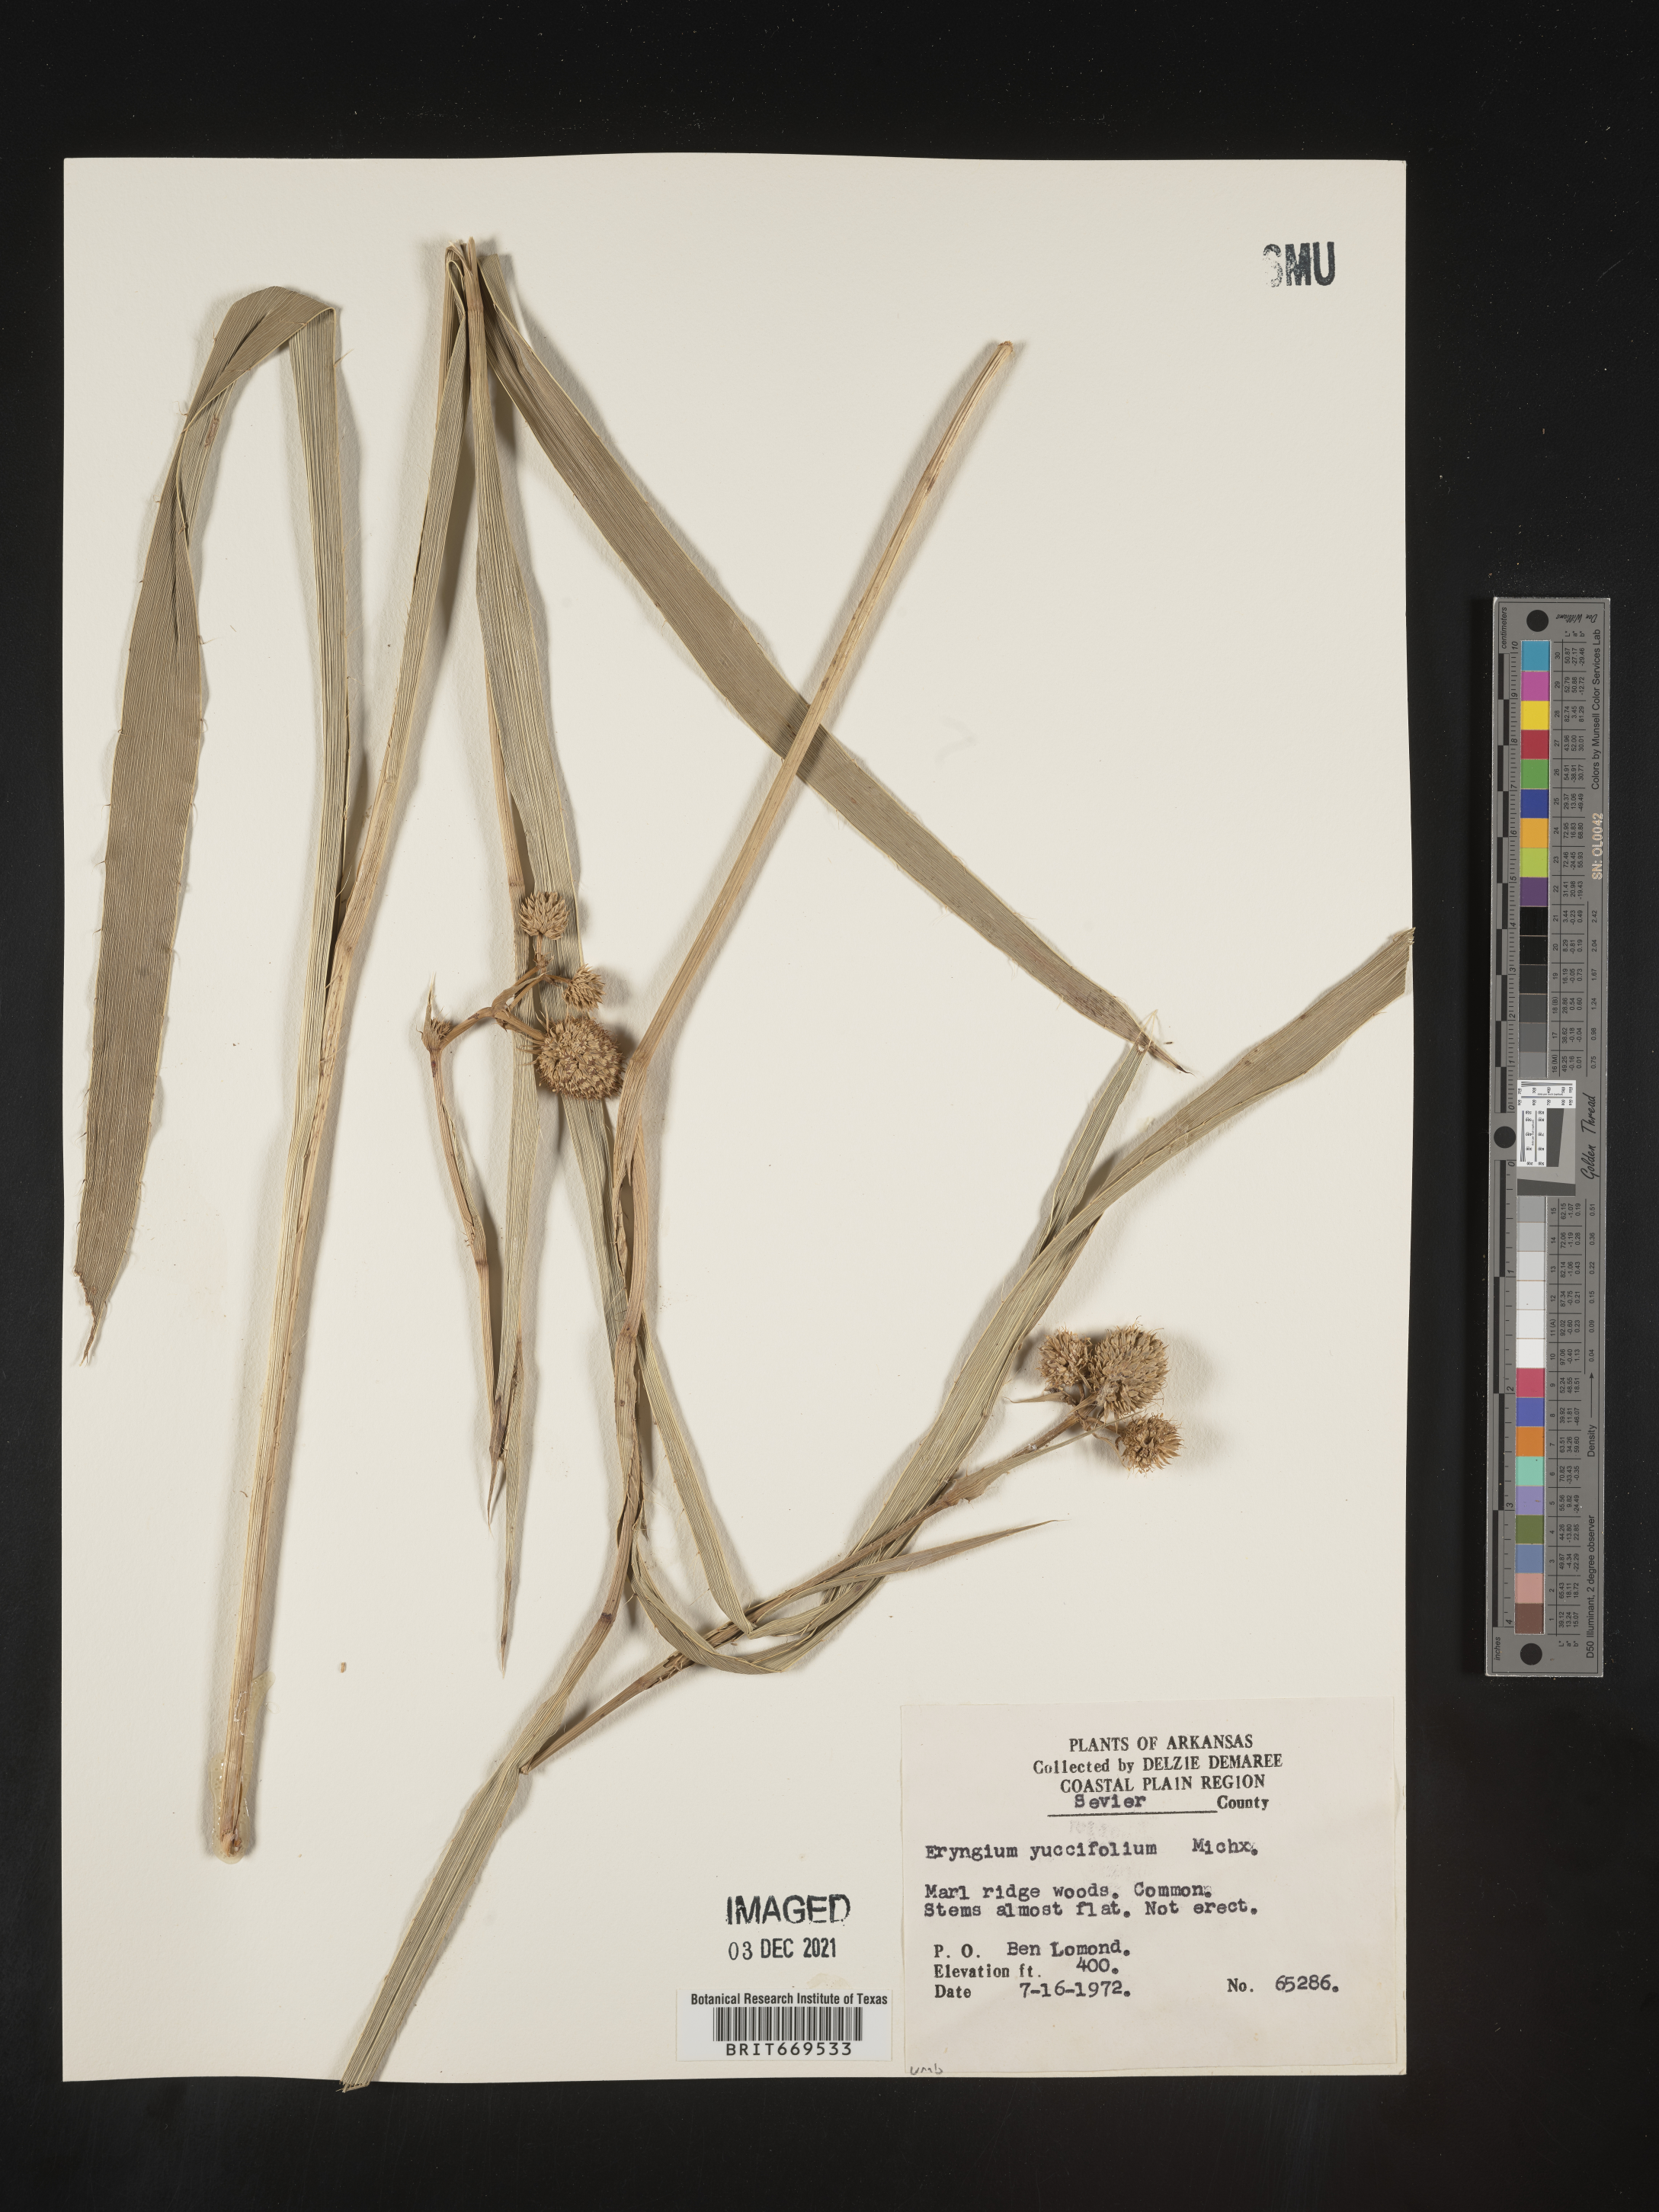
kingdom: Plantae
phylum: Tracheophyta
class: Magnoliopsida
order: Apiales
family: Apiaceae
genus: Eryngium
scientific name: Eryngium yuccifolium
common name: Button eryngo
